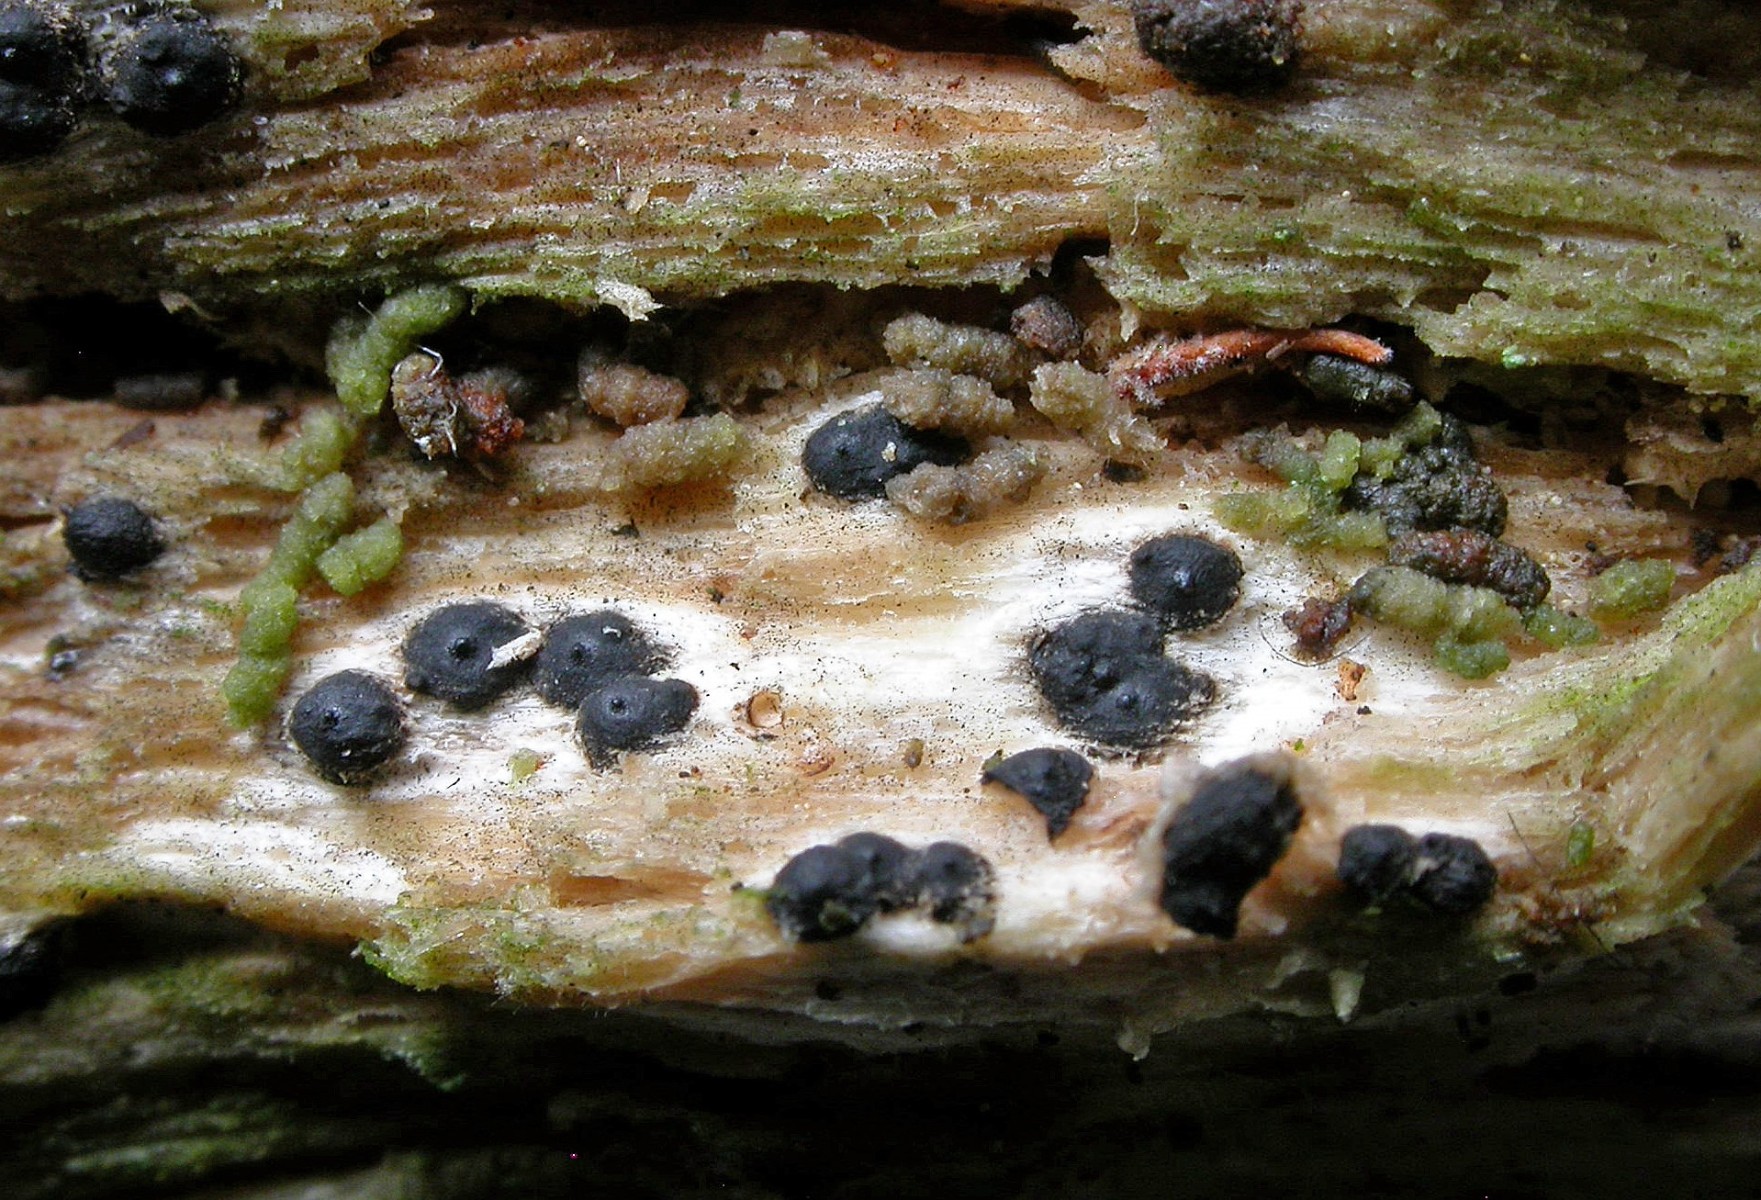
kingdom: Fungi
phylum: Ascomycota
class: Sordariomycetes
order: Xylariales
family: Xylariaceae
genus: Nemania
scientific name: Nemania confluens
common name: indsænket kuldyne
